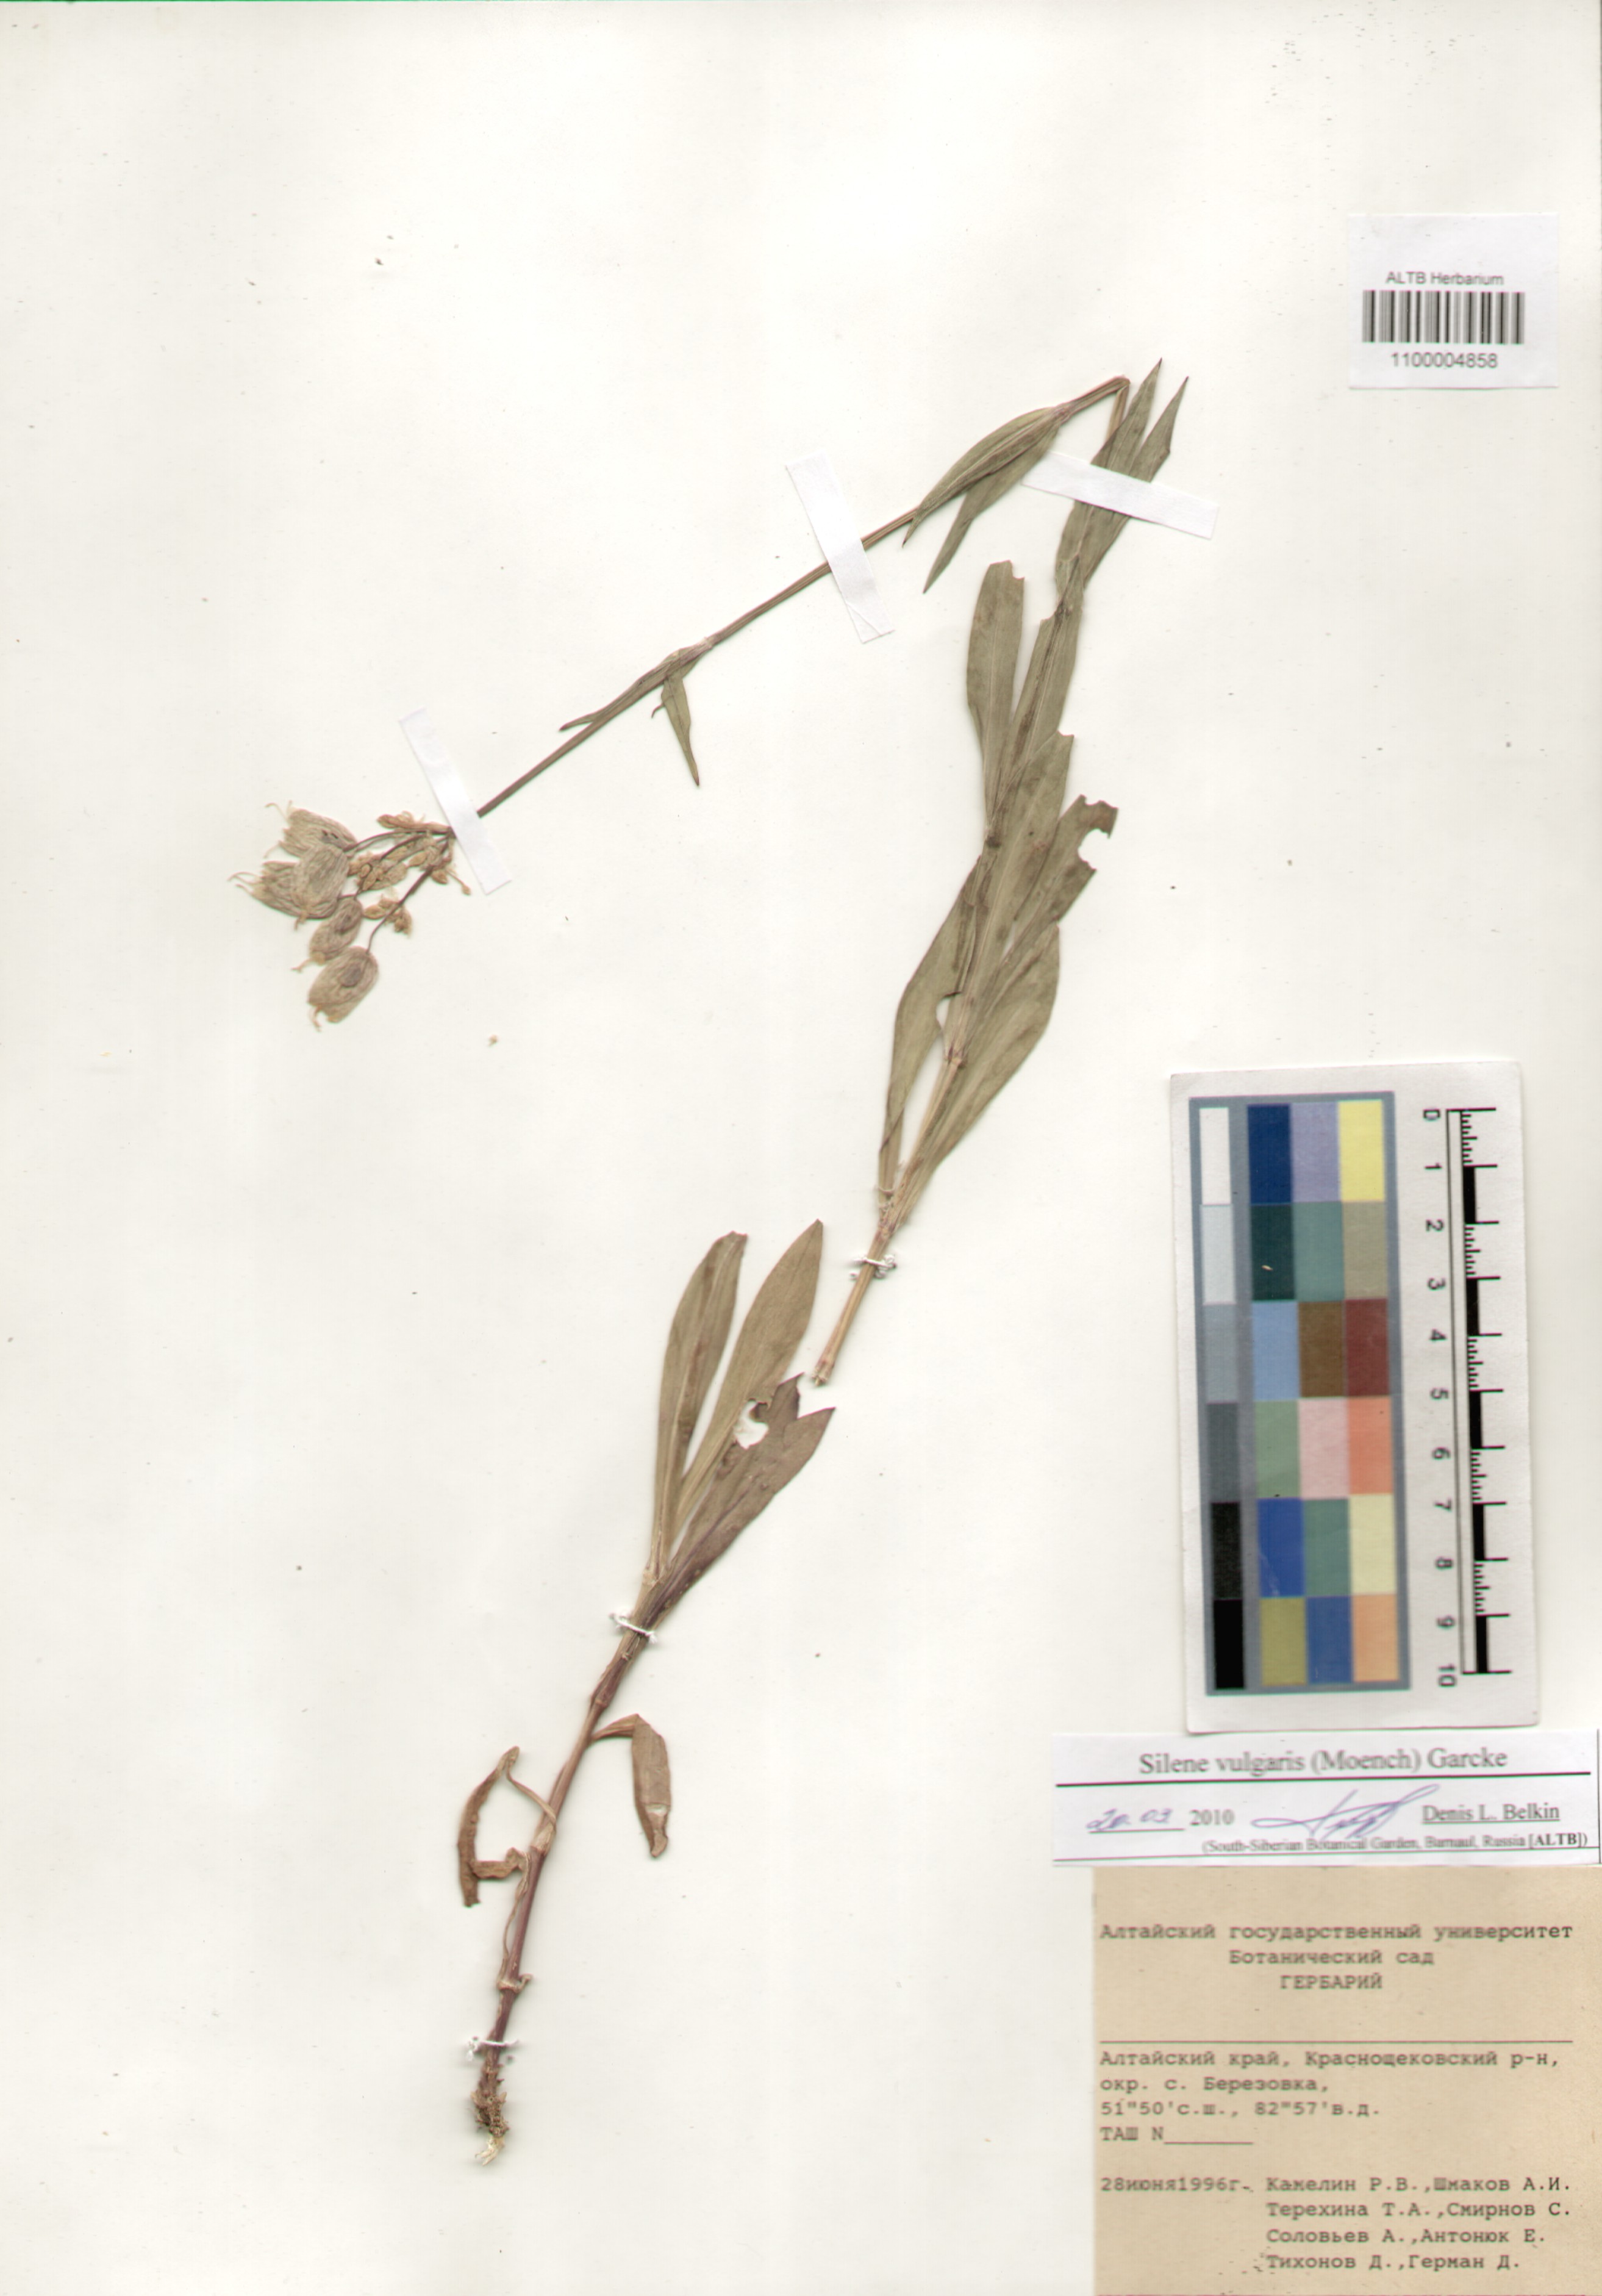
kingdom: Plantae
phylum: Tracheophyta
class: Magnoliopsida
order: Caryophyllales
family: Caryophyllaceae
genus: Silene
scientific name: Silene vulgaris
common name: Bladder campion
